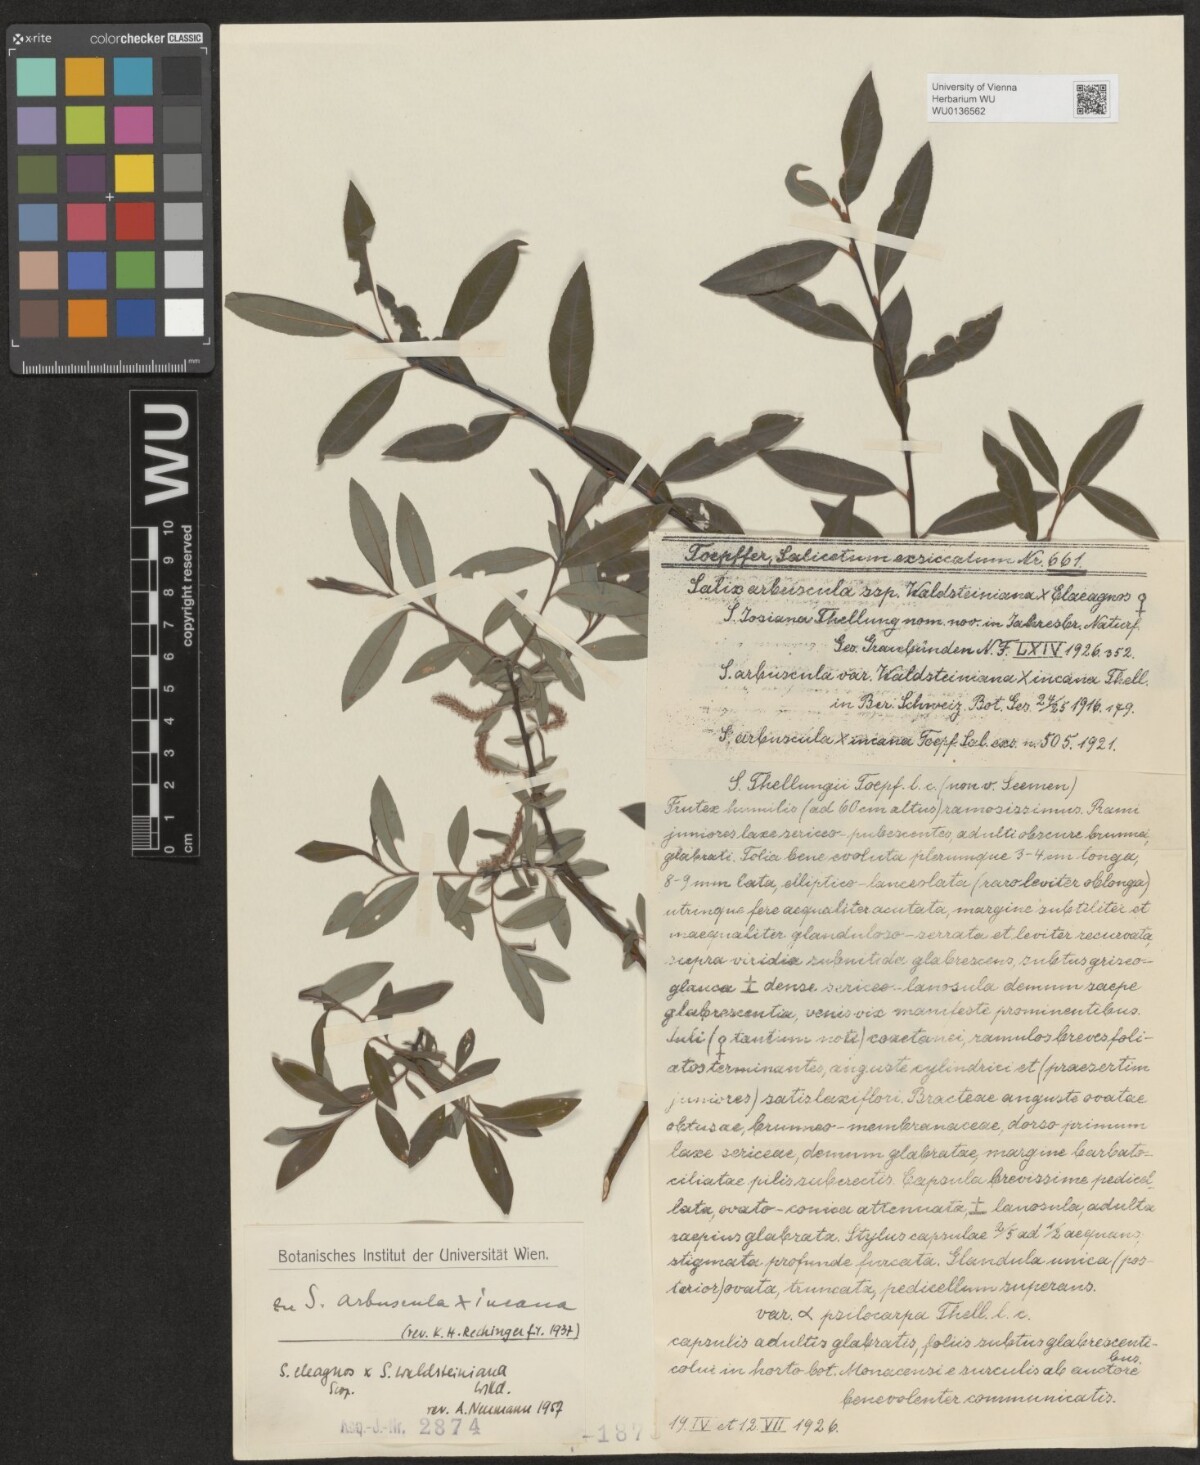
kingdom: Plantae
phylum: Tracheophyta
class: Magnoliopsida
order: Malpighiales
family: Salicaceae
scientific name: Salicaceae
